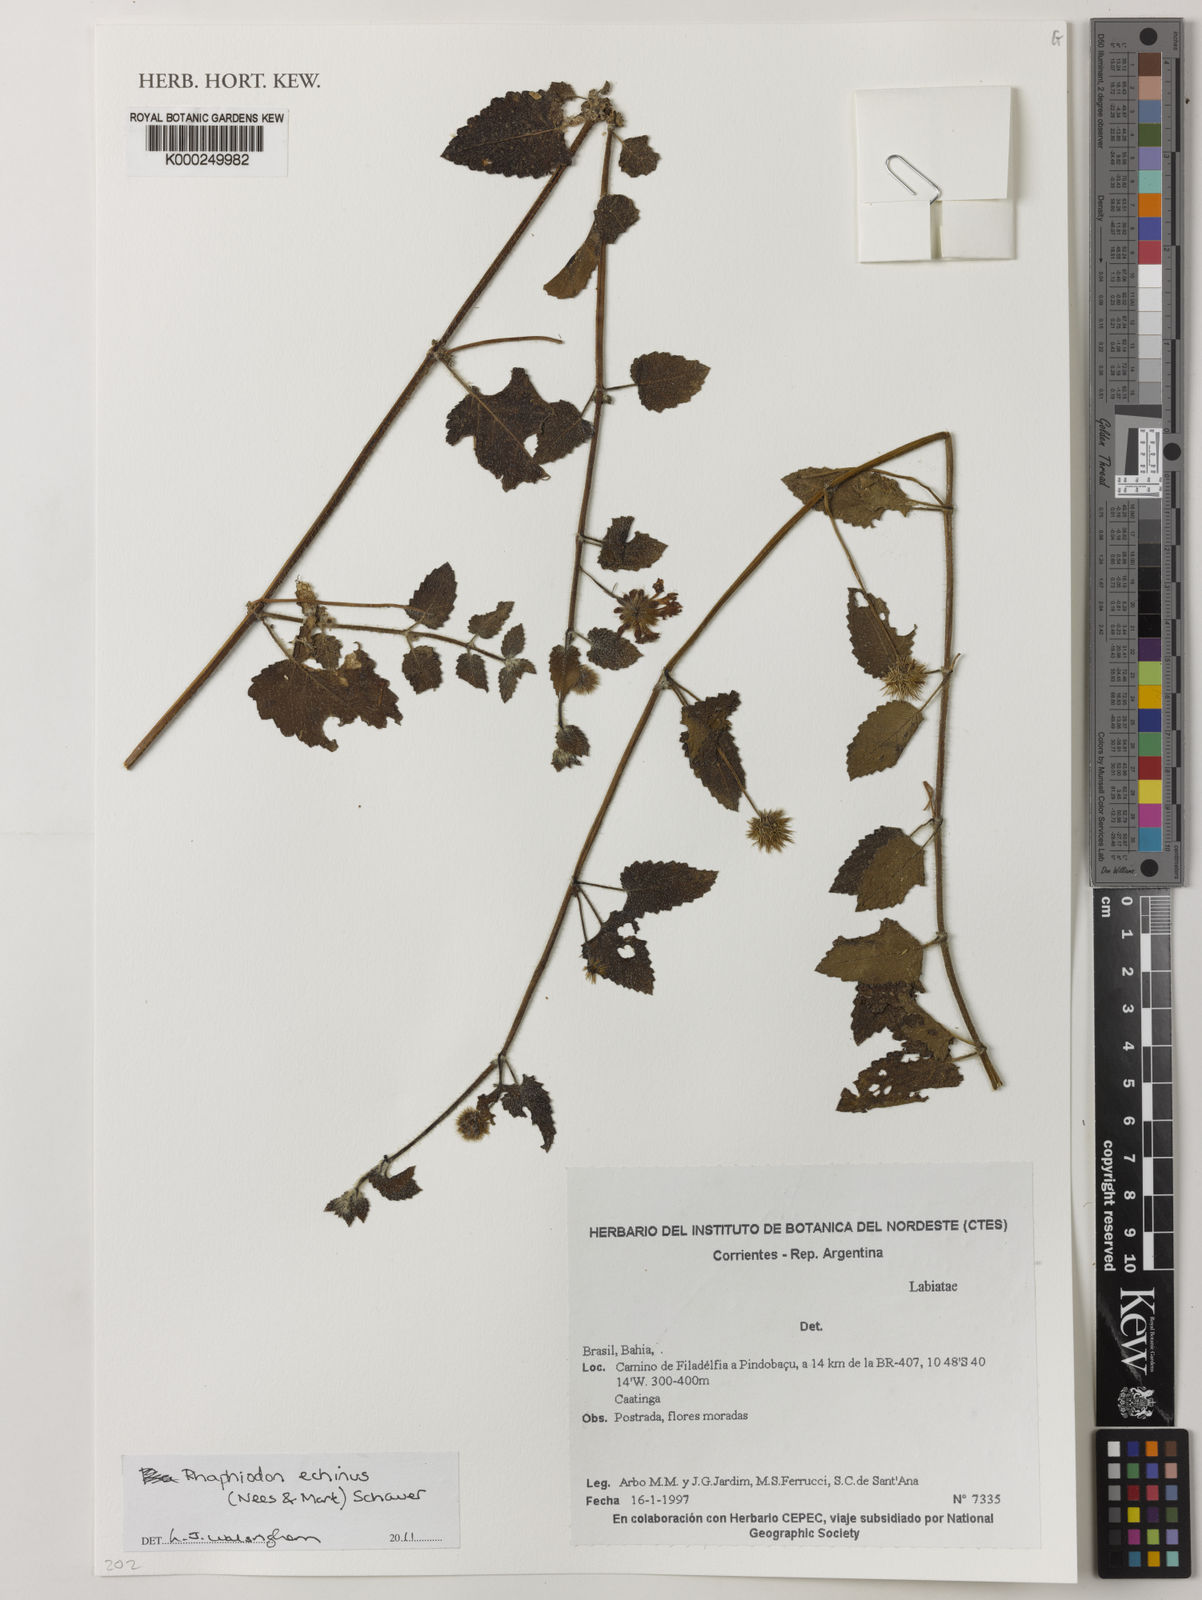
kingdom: Plantae
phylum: Tracheophyta
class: Magnoliopsida
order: Lamiales
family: Lamiaceae
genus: Rhaphiodon
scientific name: Rhaphiodon echinus
